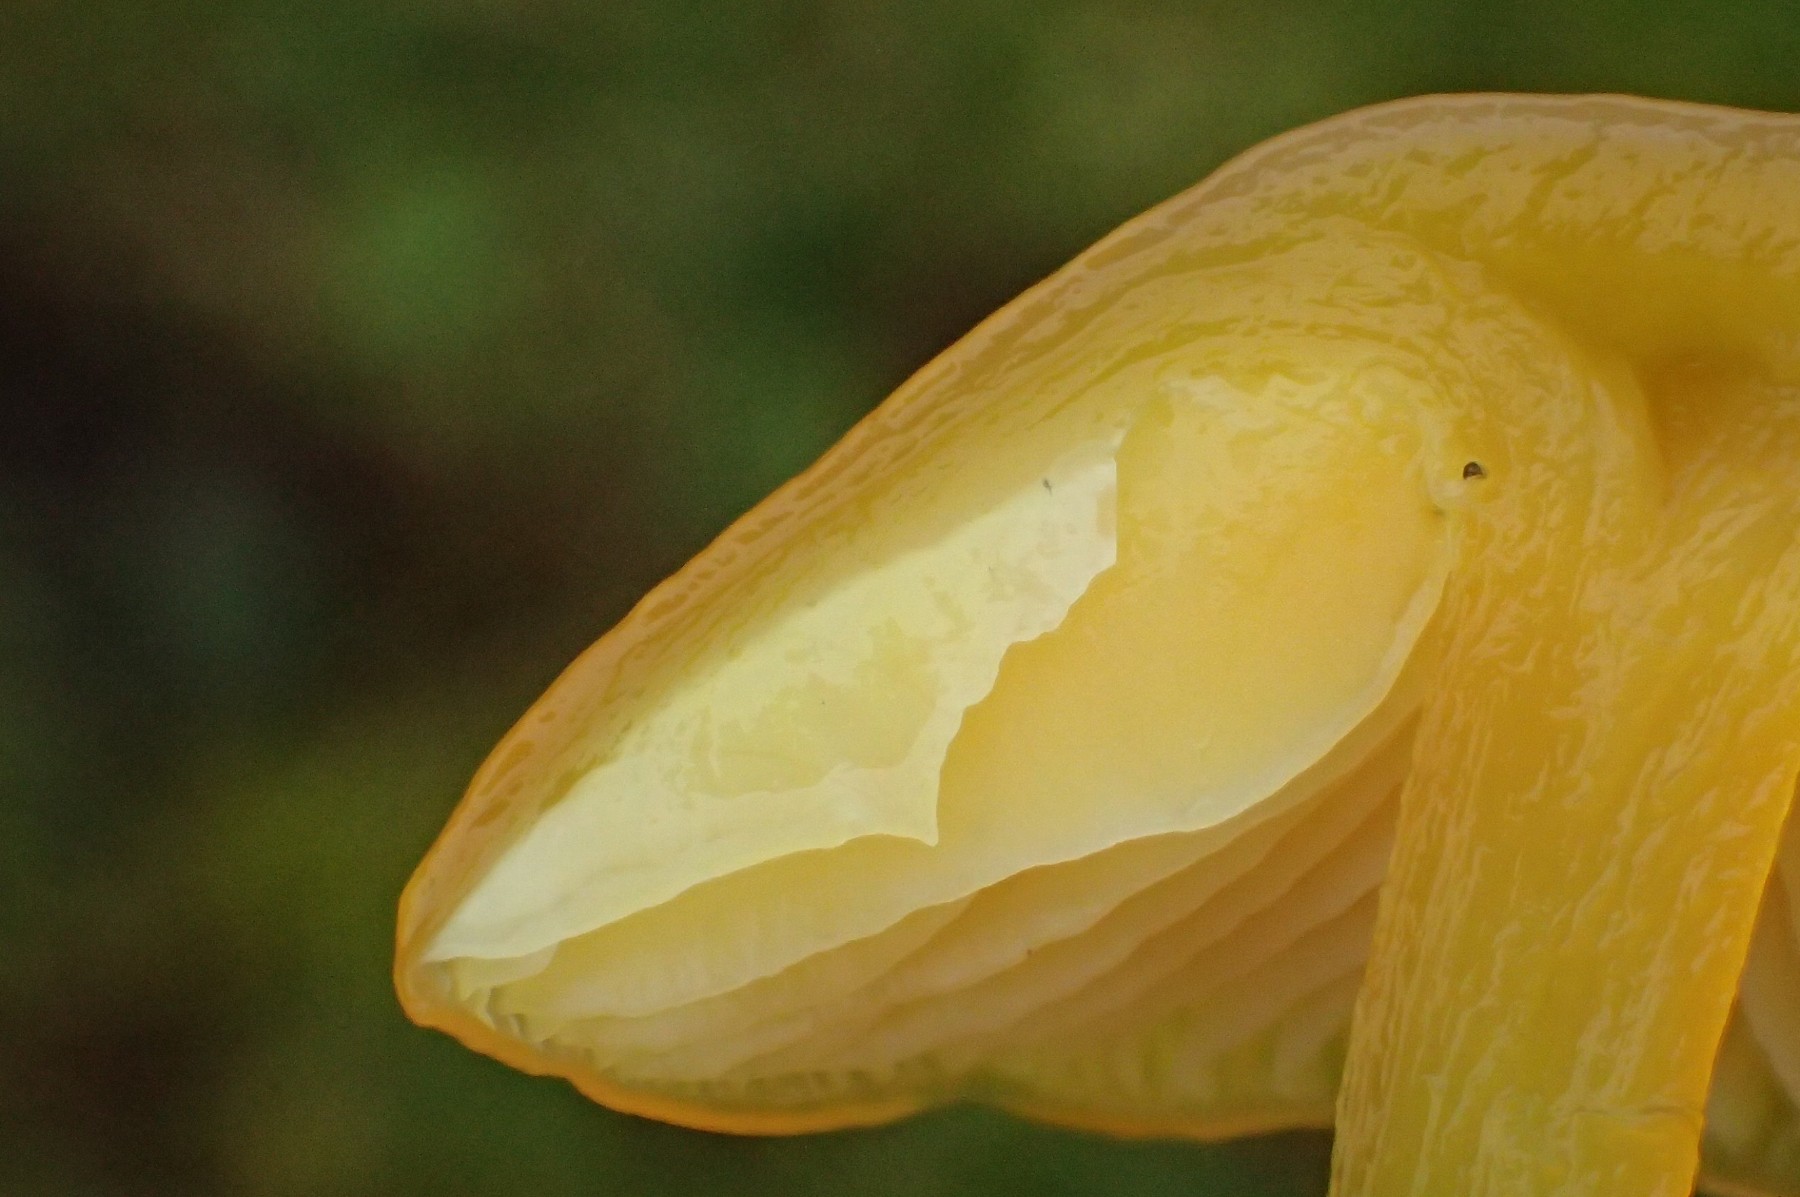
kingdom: Fungi
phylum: Basidiomycota
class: Agaricomycetes
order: Agaricales
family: Hygrophoraceae
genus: Hygrocybe
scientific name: Hygrocybe chlorophana
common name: gul vokshat
